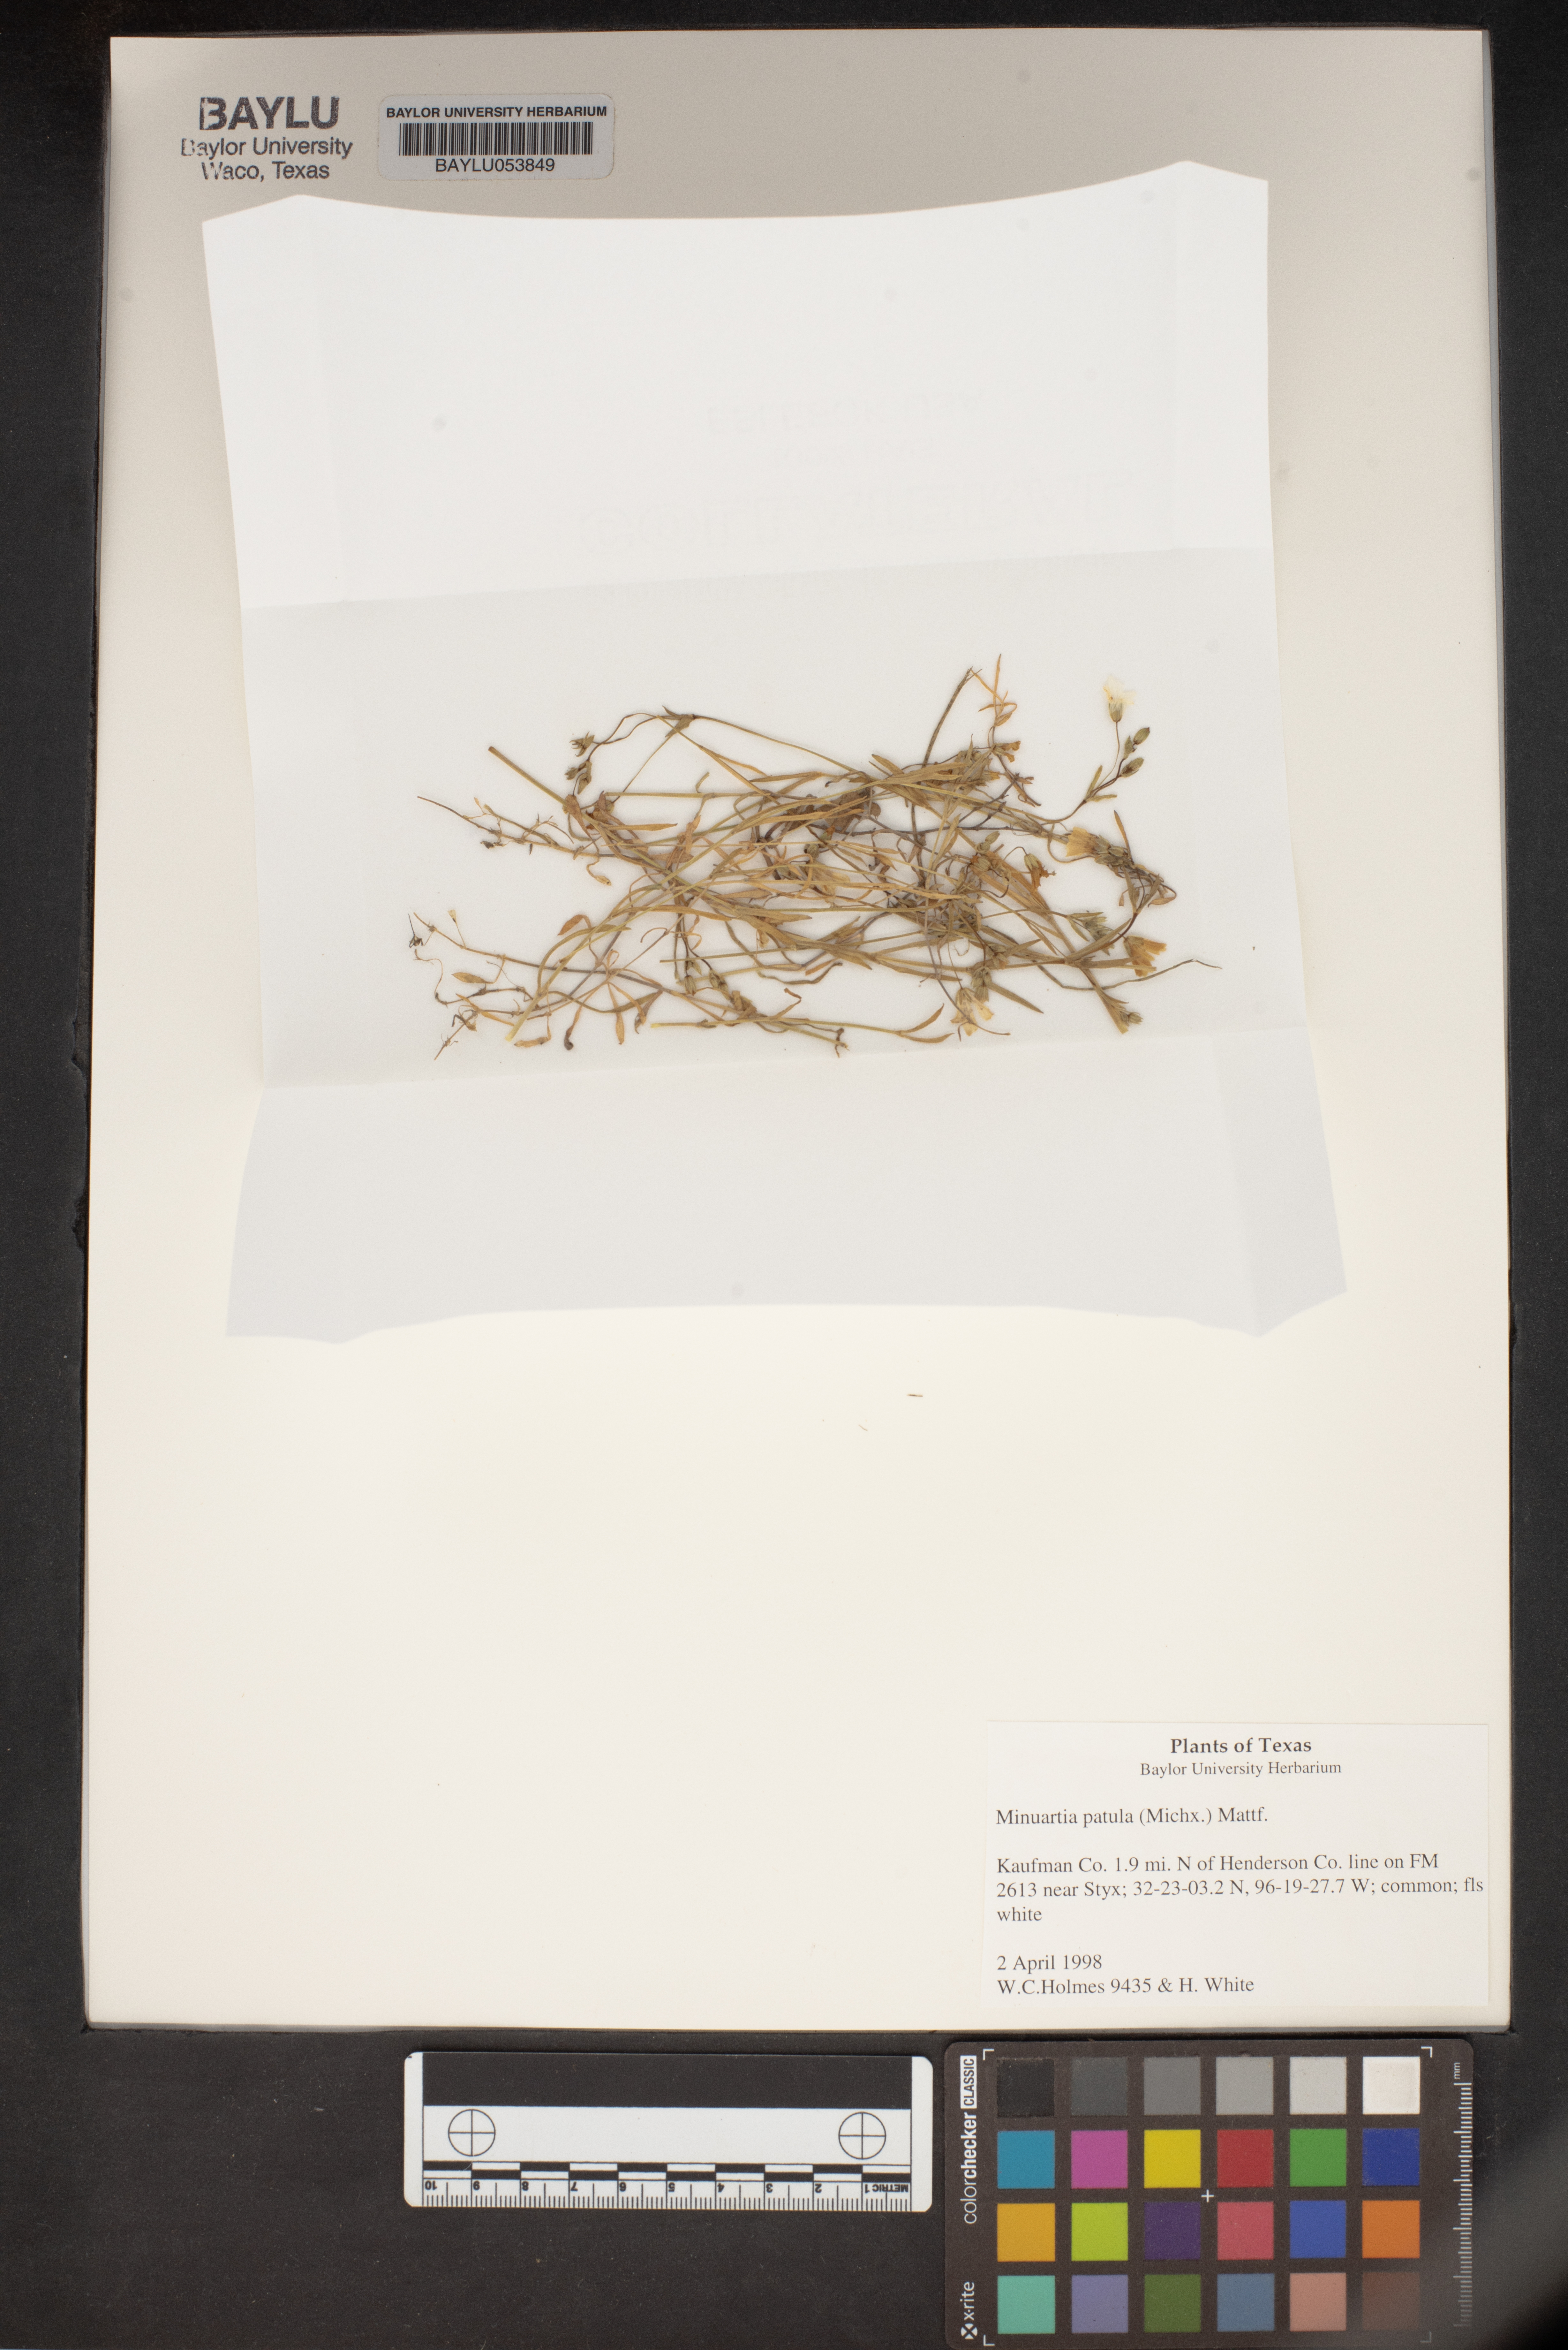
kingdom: Plantae
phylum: Tracheophyta
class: Magnoliopsida
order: Caryophyllales
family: Caryophyllaceae
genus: Mononeuria
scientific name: Mononeuria patula
